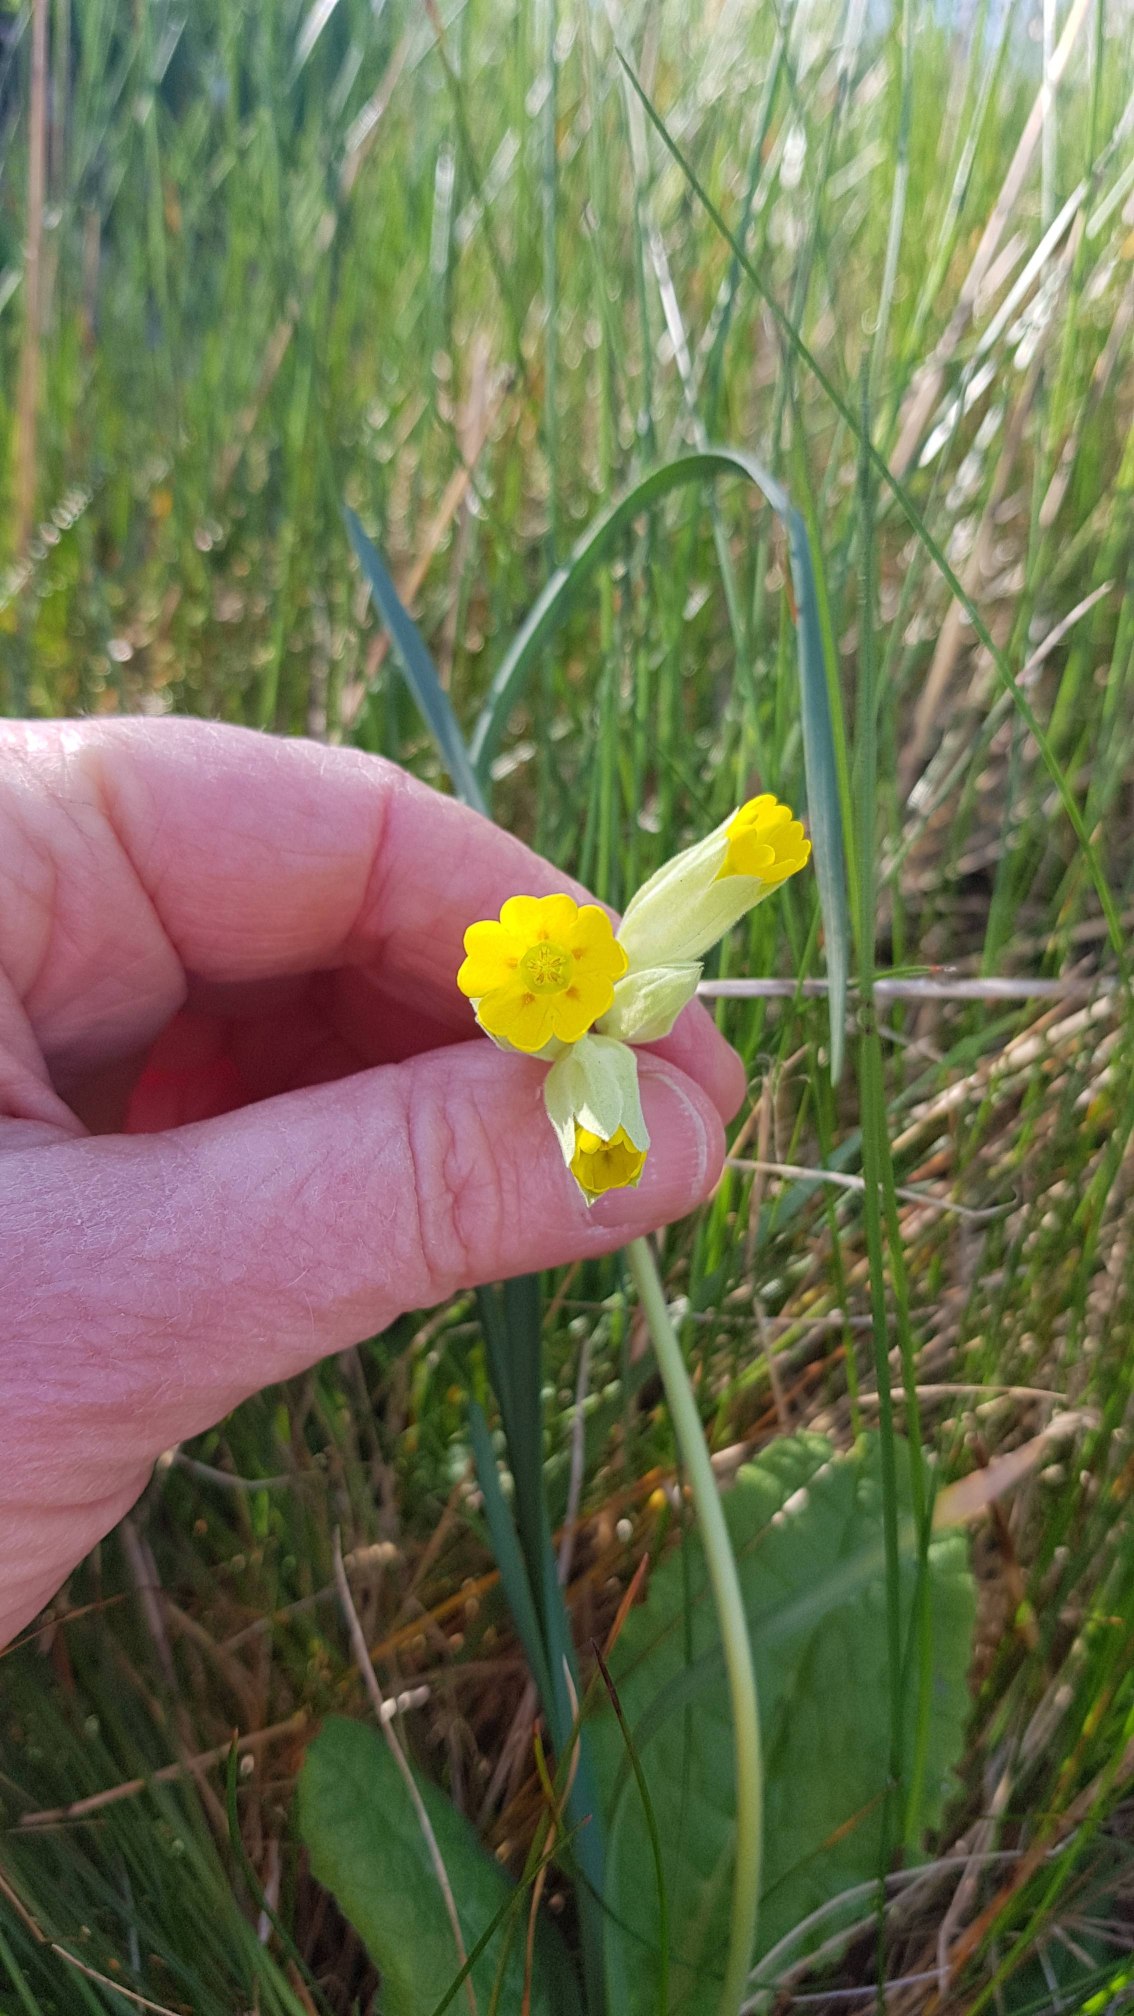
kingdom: Plantae
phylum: Tracheophyta
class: Magnoliopsida
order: Ericales
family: Primulaceae
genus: Primula
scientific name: Primula veris
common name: Hulkravet kodriver
